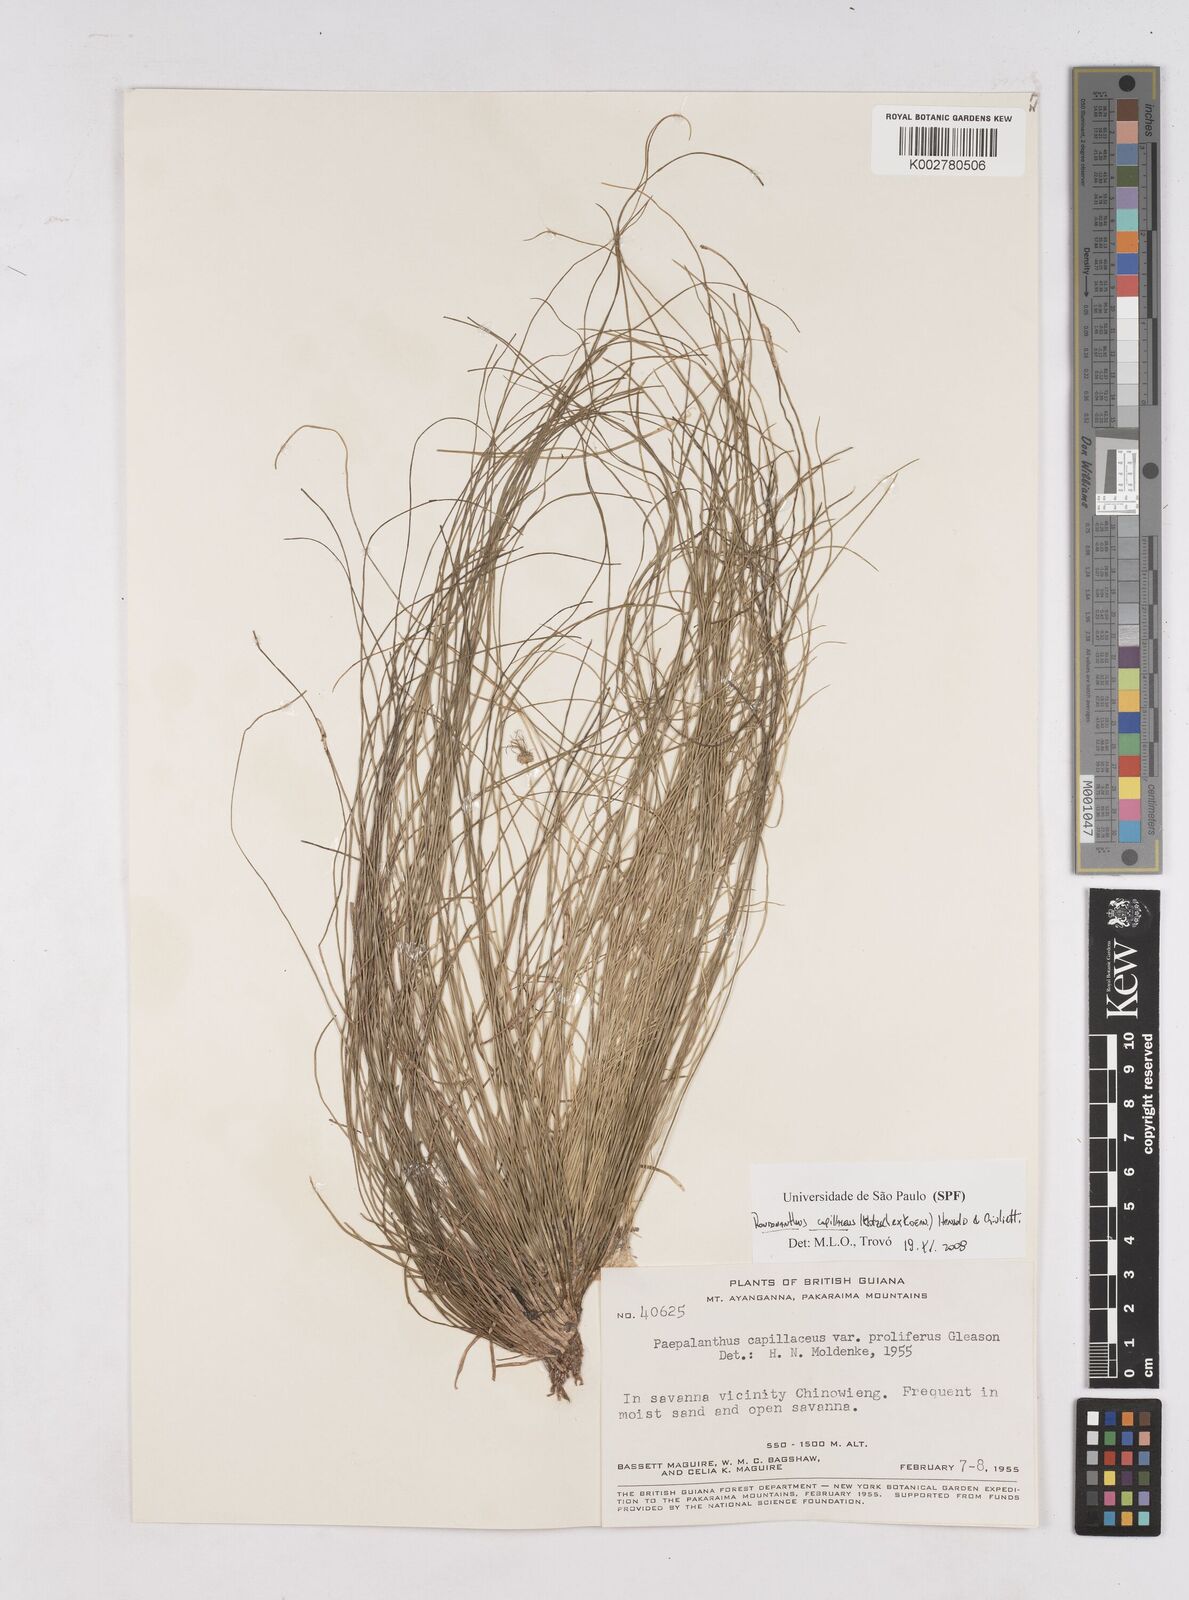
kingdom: Plantae
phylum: Tracheophyta
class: Liliopsida
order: Poales
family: Eriocaulaceae
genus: Rondonanthus
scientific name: Rondonanthus capillaceus
